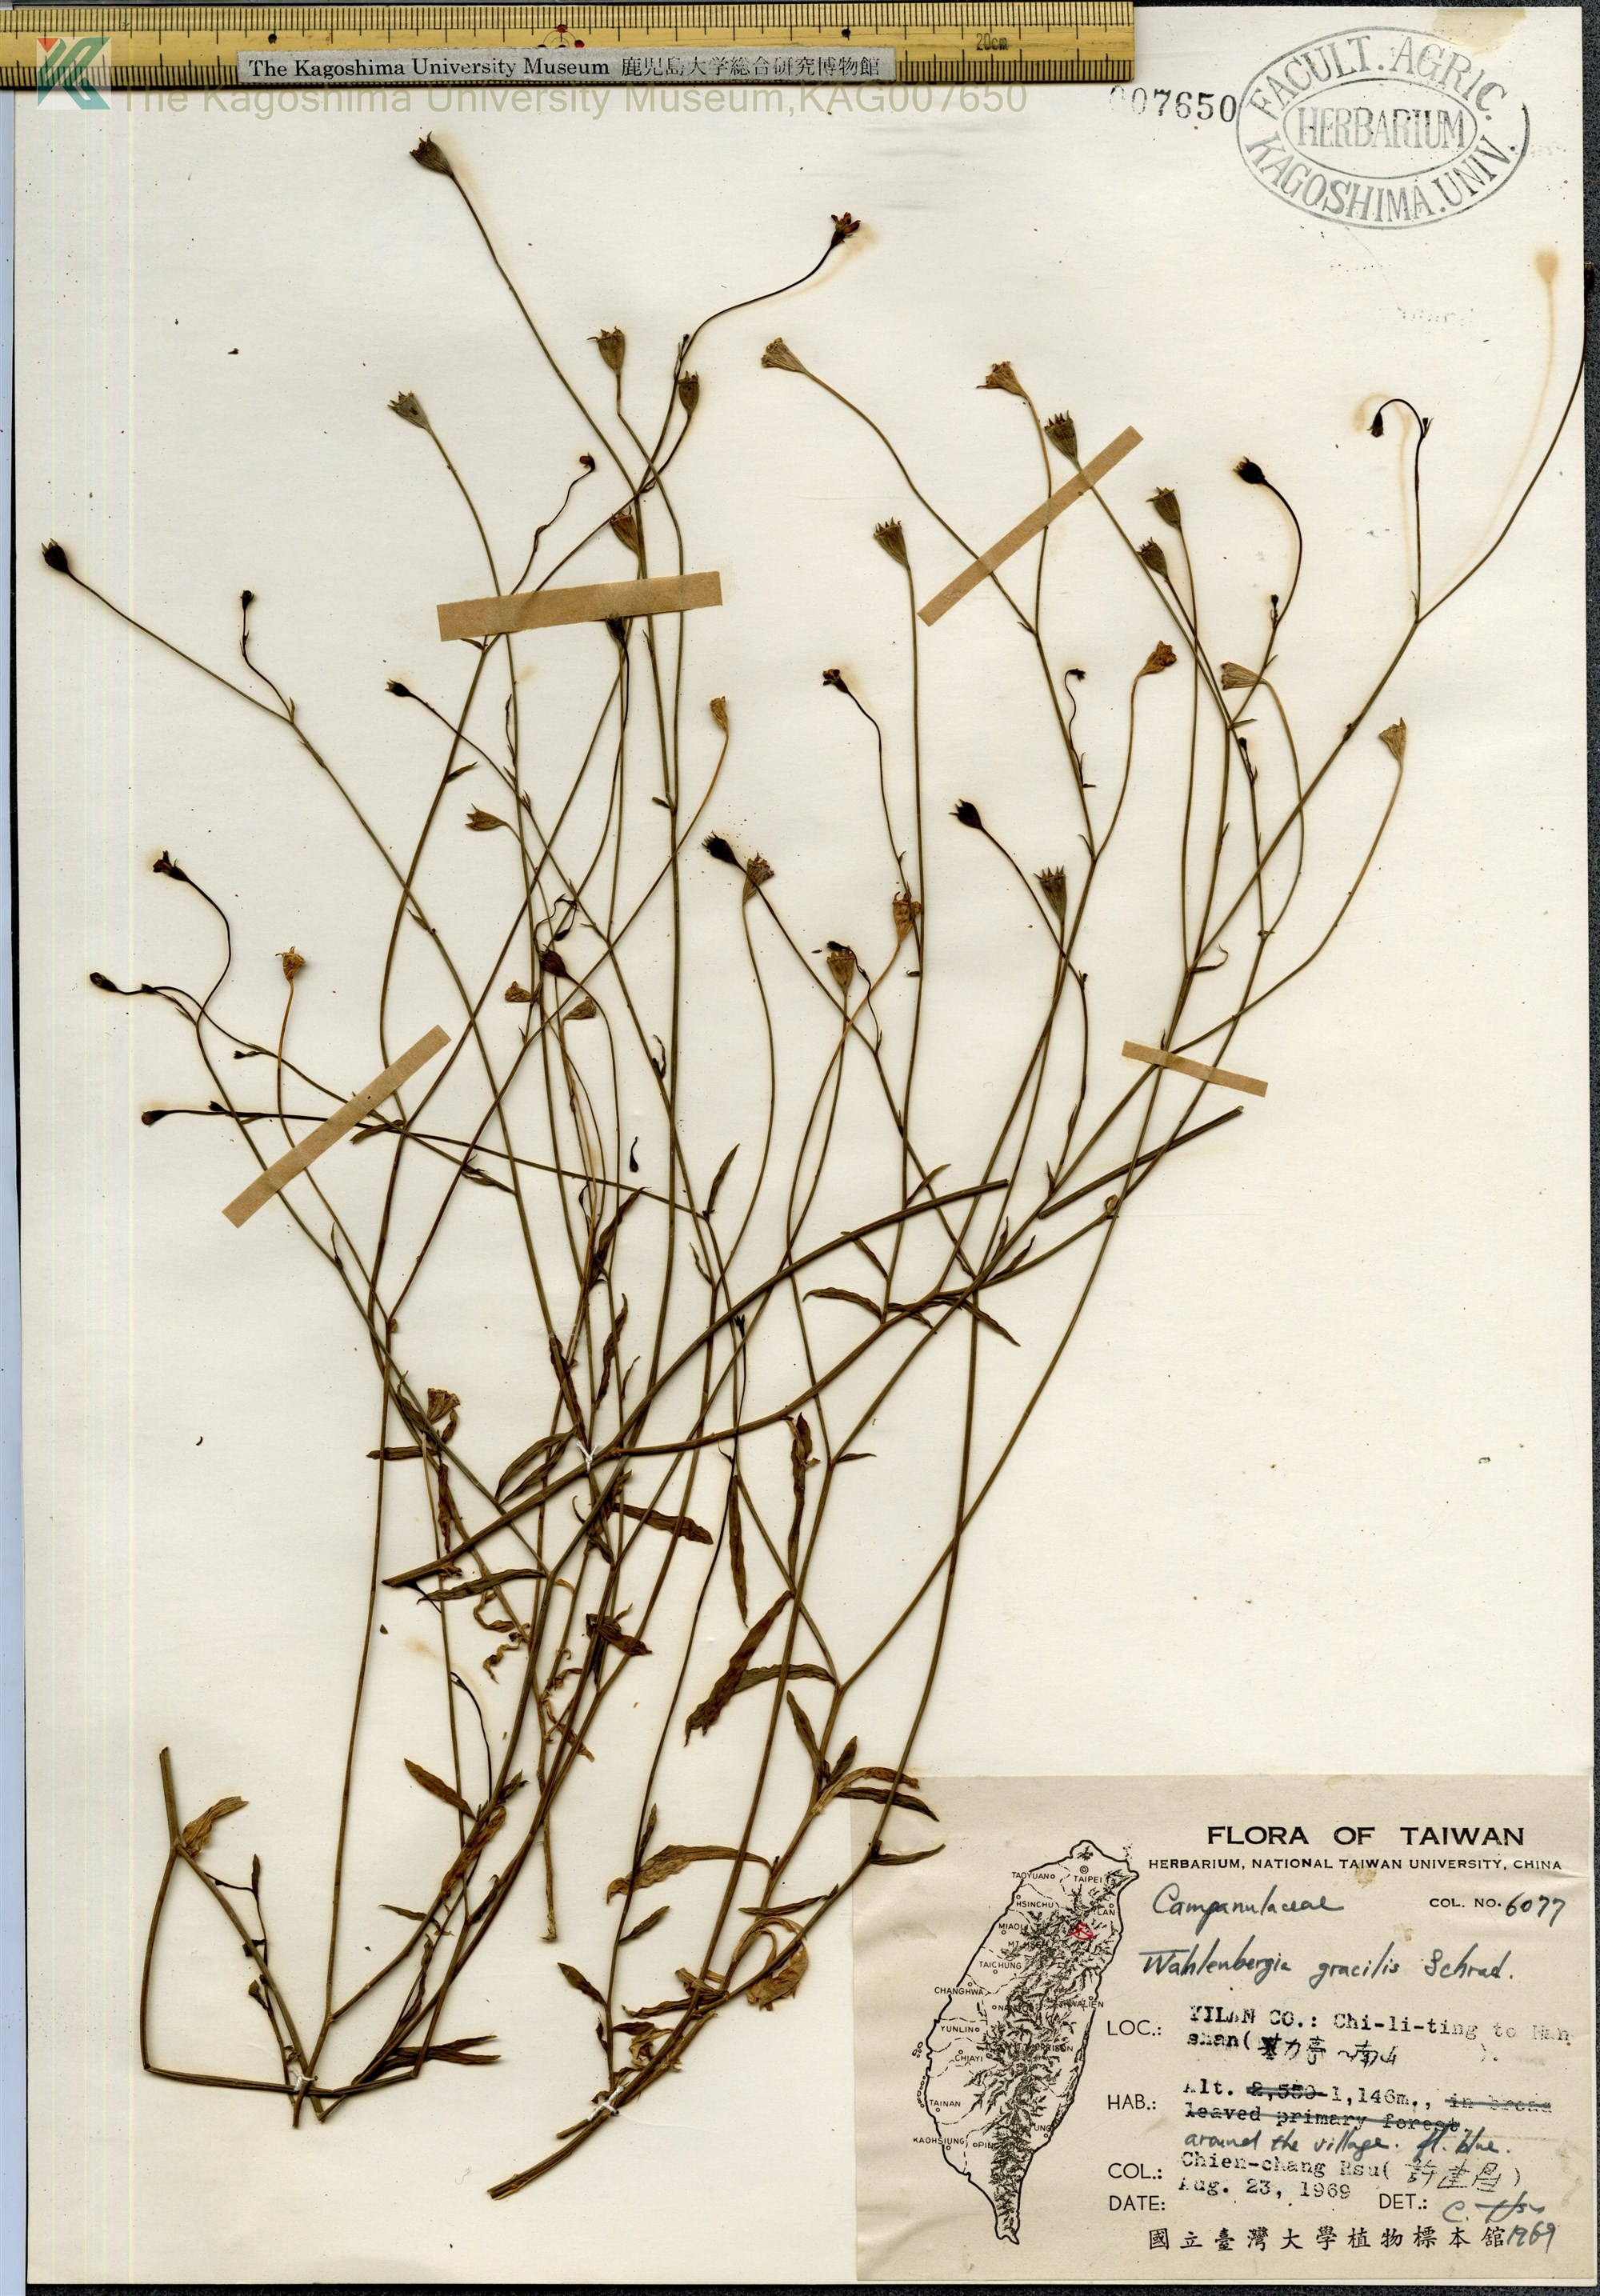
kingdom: Plantae
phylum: Tracheophyta
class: Magnoliopsida
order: Asterales
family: Campanulaceae
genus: Wahlenbergia
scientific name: Wahlenbergia marginata
